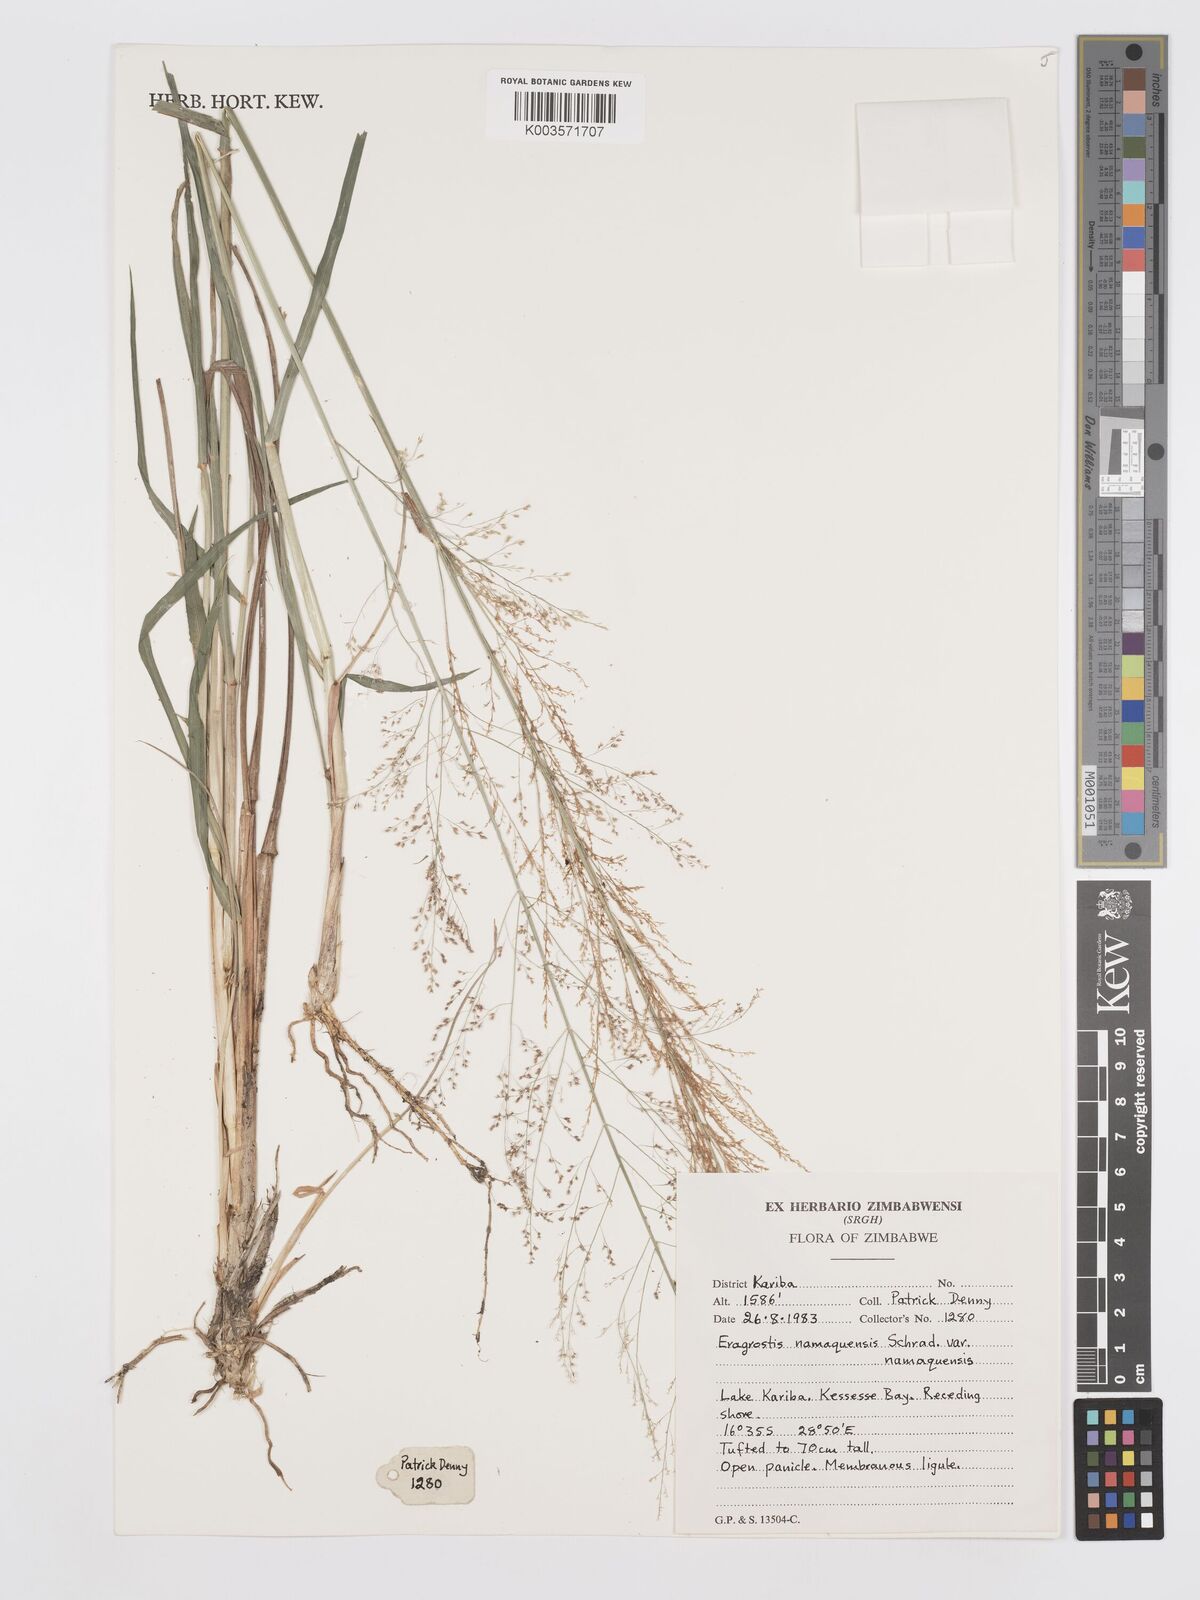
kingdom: Plantae
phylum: Tracheophyta
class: Liliopsida
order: Poales
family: Poaceae
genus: Eragrostis
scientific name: Eragrostis japonica
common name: Pond lovegrass
